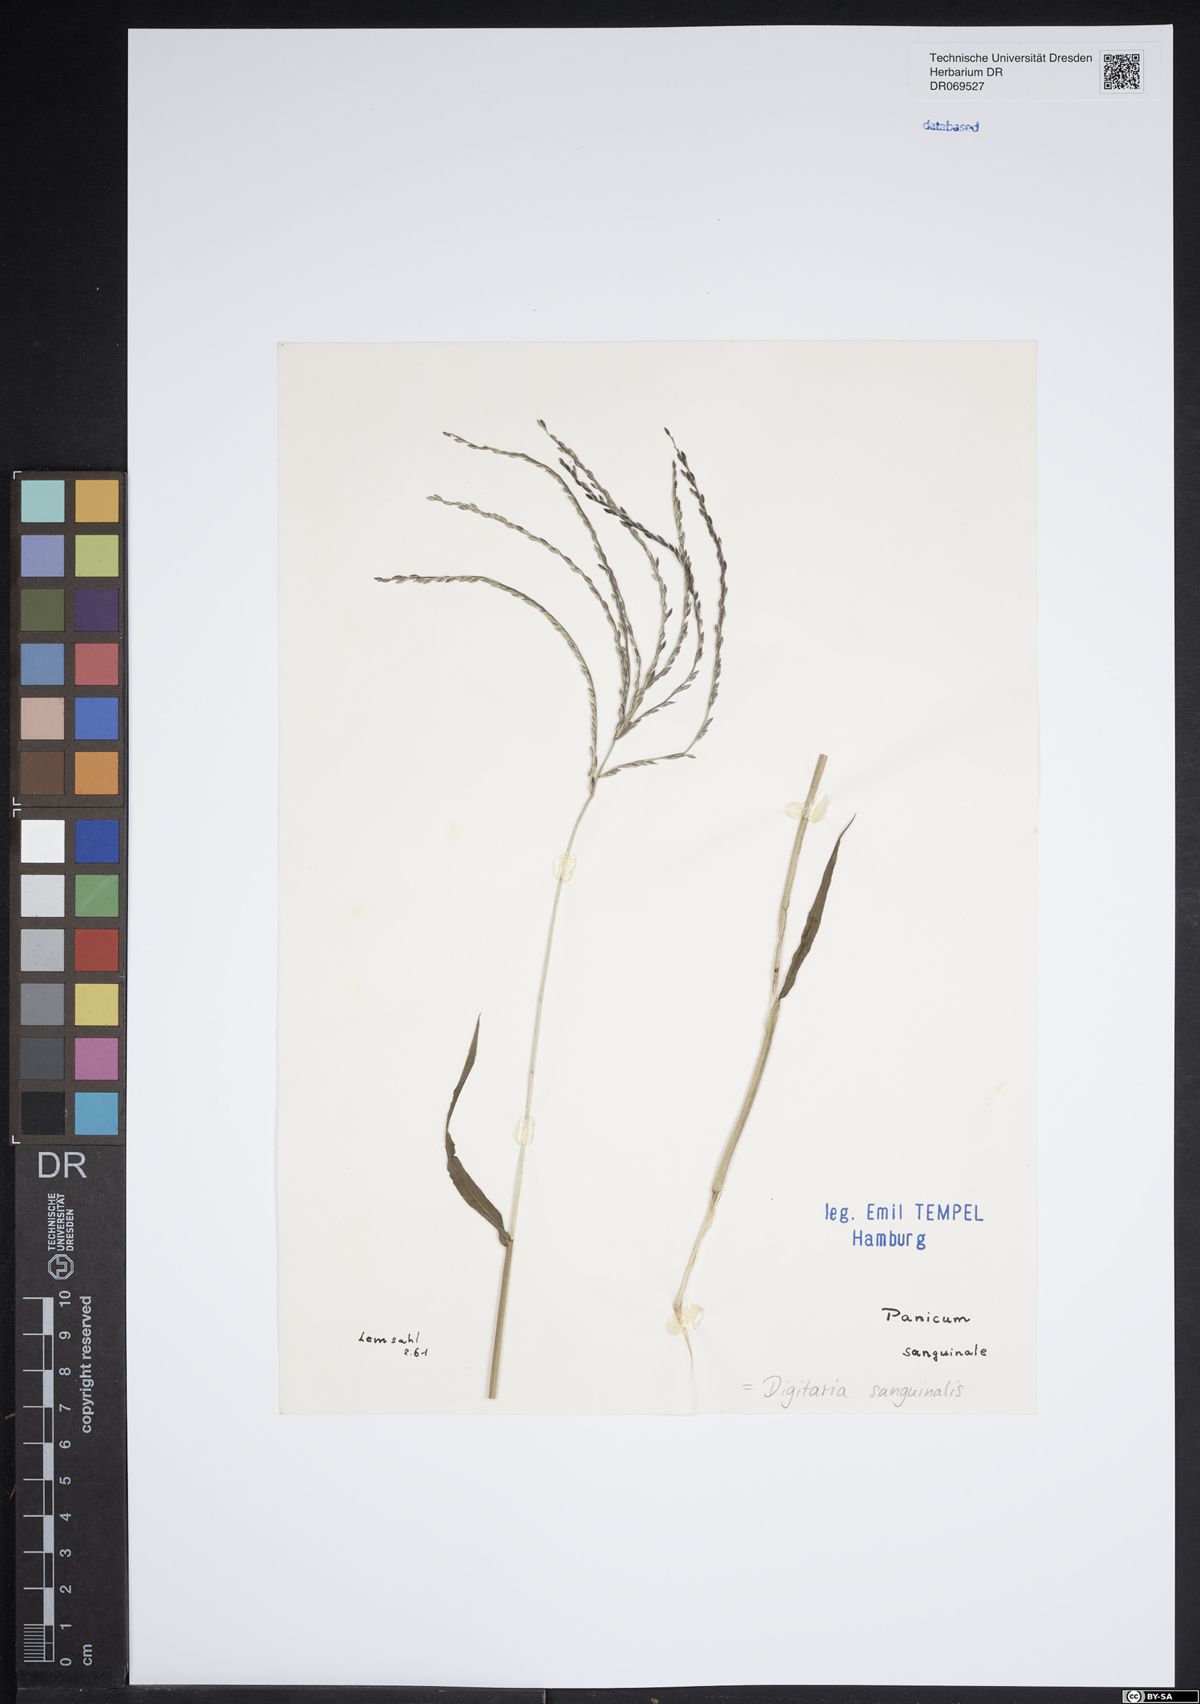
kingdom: Plantae
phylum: Tracheophyta
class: Liliopsida
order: Poales
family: Poaceae
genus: Digitaria
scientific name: Digitaria sanguinalis
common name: Hairy crabgrass
